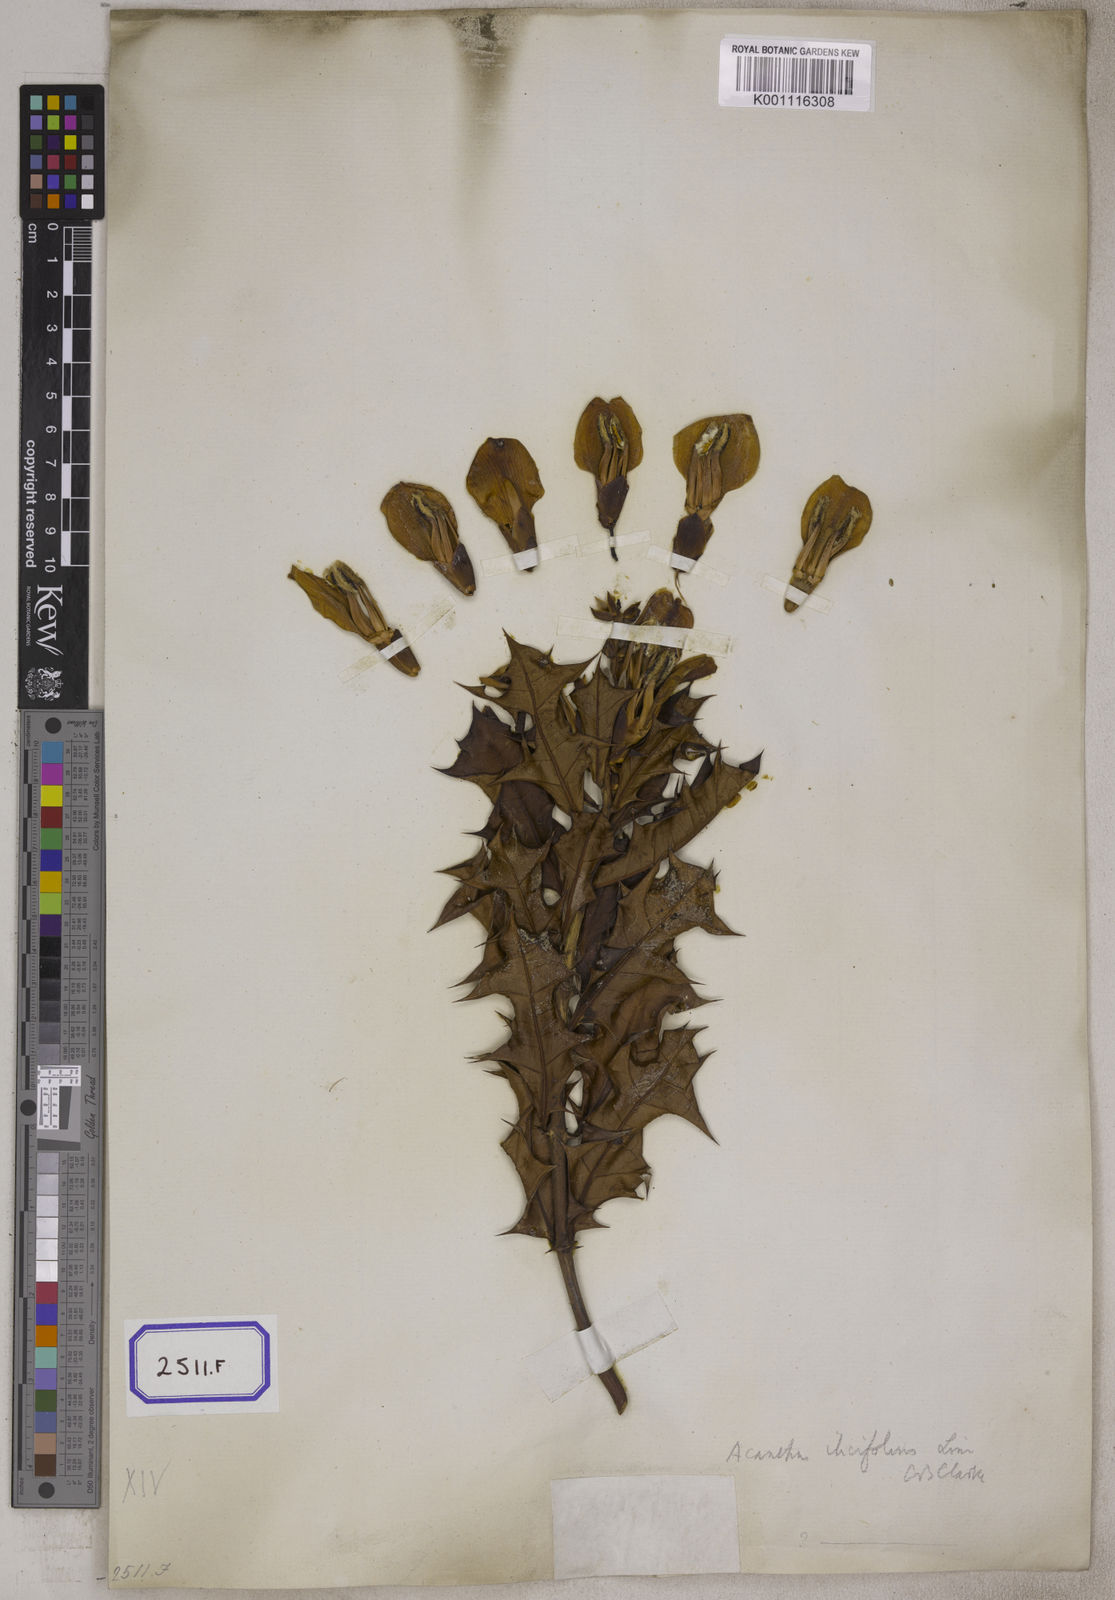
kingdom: Plantae
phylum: Tracheophyta
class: Magnoliopsida
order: Lamiales
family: Acanthaceae
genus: Acanthus
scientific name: Acanthus ilicifolius
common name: Holy mangrove
